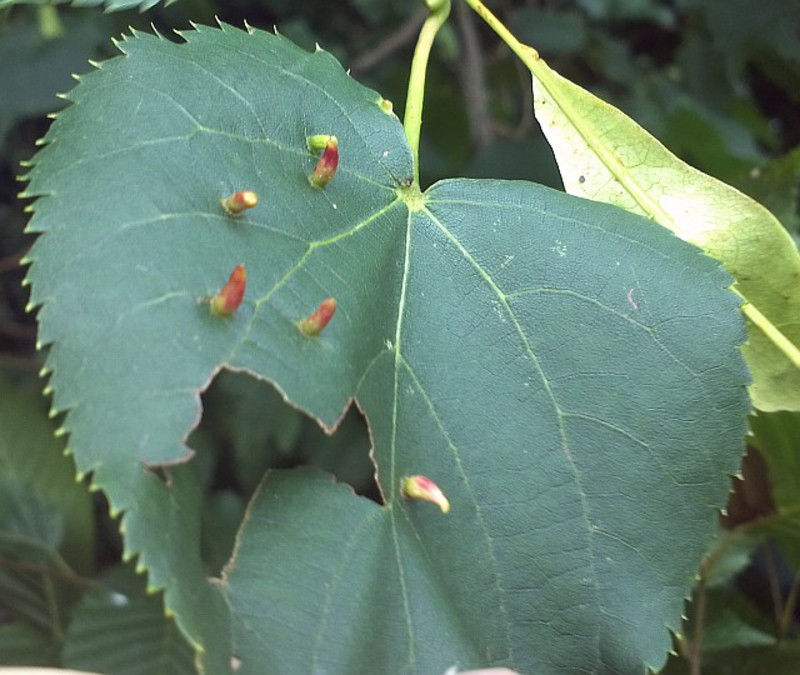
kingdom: Animalia
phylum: Arthropoda
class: Arachnida
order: Trombidiformes
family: Eriophyidae
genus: Eriophyes
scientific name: Eriophyes lateannulatus
